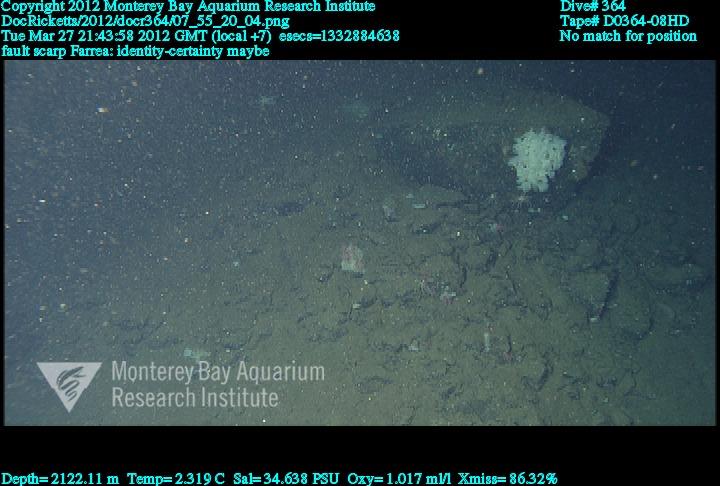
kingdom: Animalia
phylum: Porifera
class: Hexactinellida
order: Sceptrulophora
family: Farreidae
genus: Farrea
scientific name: Farrea
